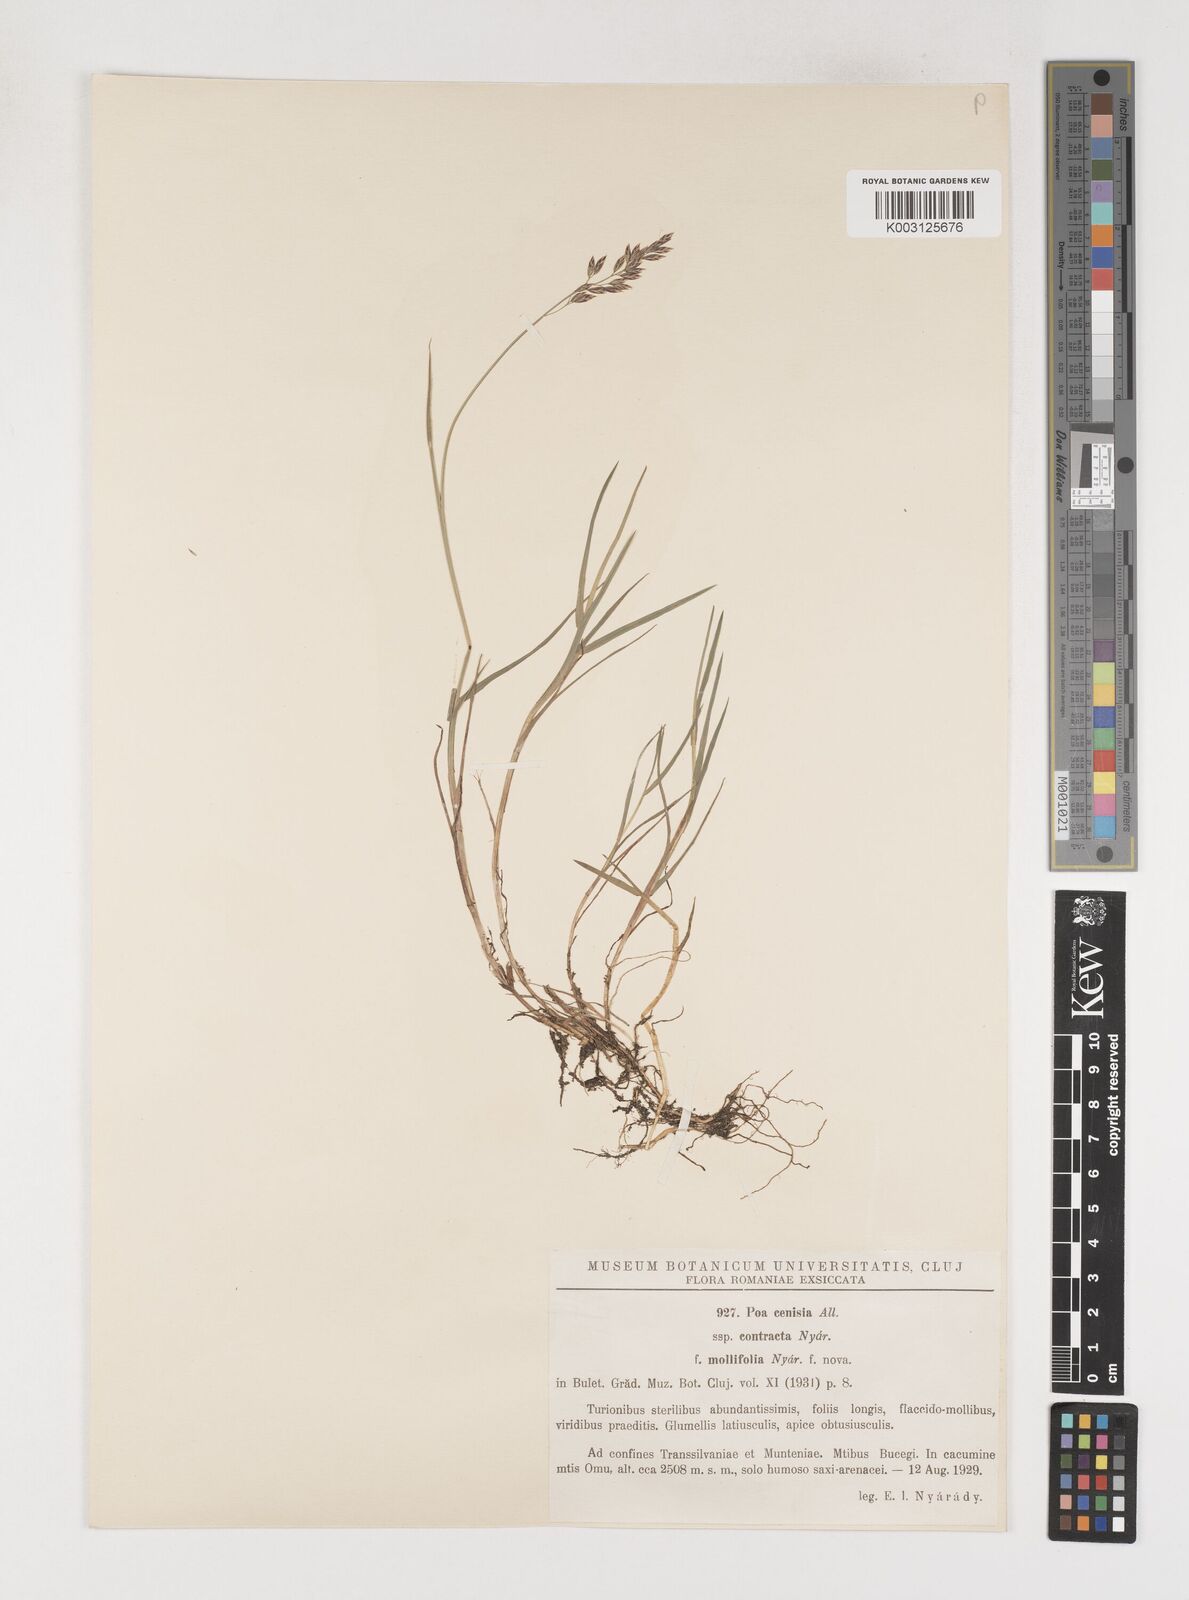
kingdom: Plantae
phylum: Tracheophyta
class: Liliopsida
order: Poales
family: Poaceae
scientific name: Poaceae
